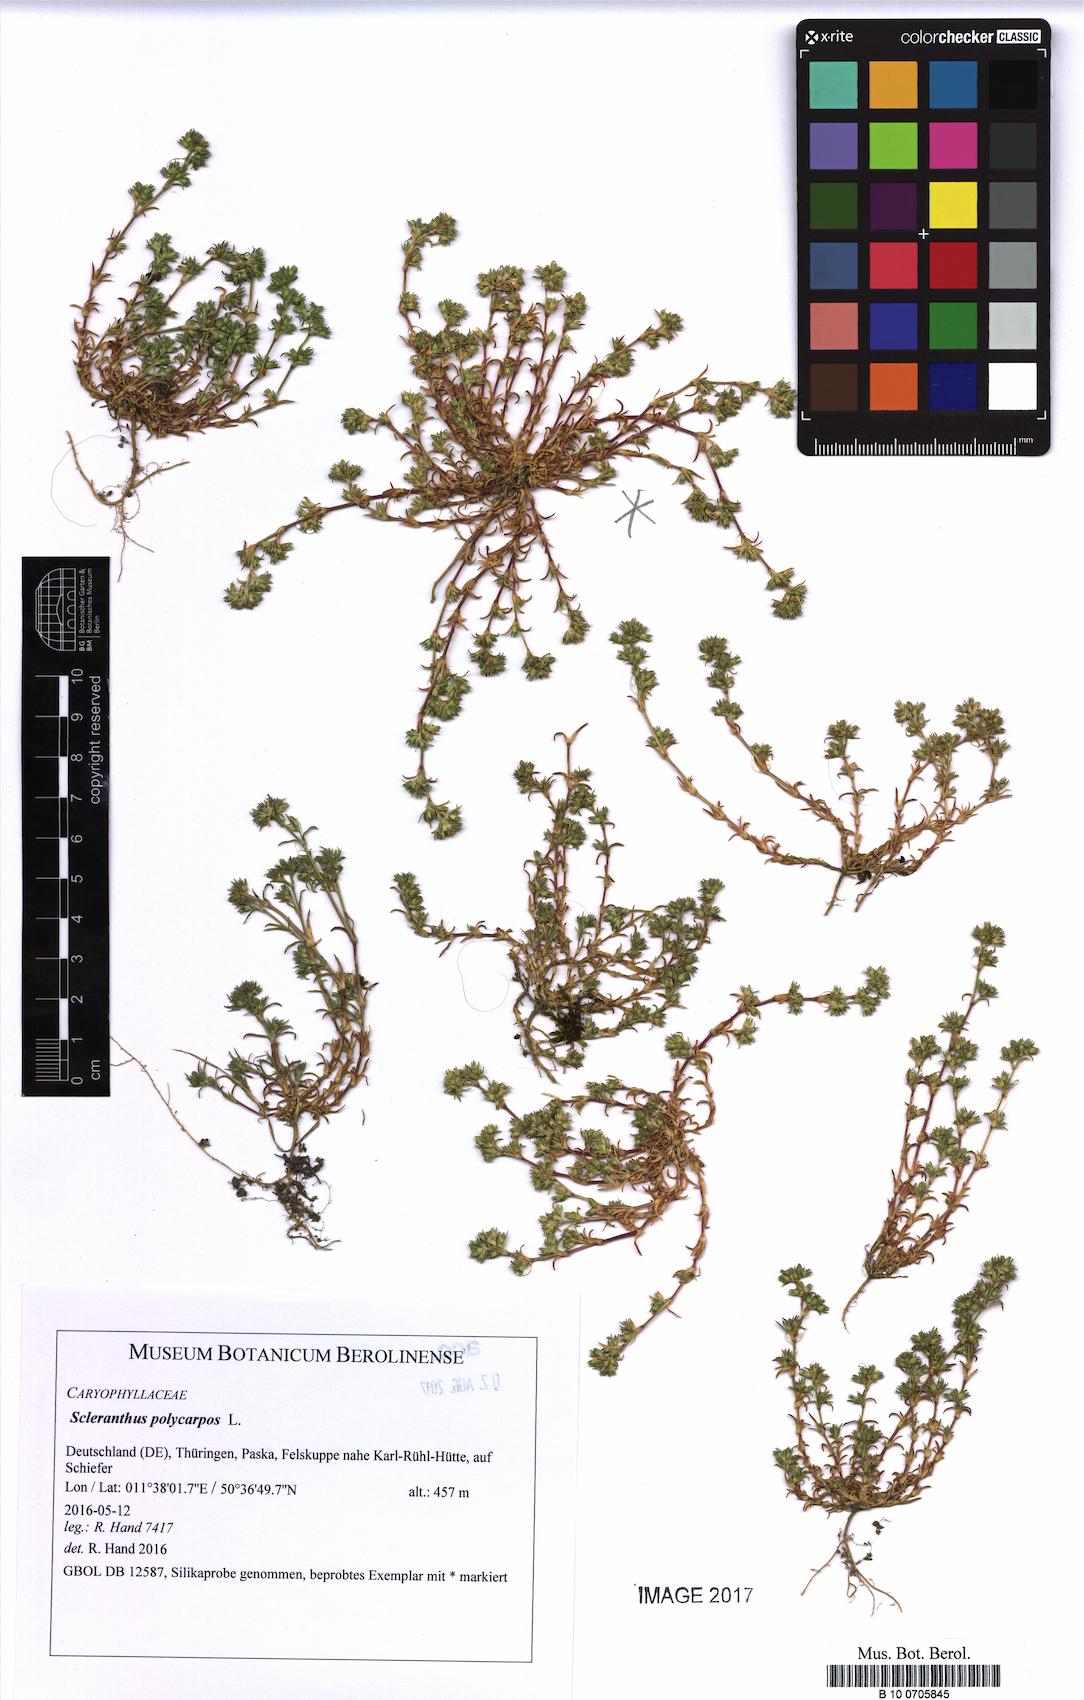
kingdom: Plantae
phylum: Tracheophyta
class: Magnoliopsida
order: Caryophyllales
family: Caryophyllaceae
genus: Scleranthus
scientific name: Scleranthus annuus
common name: Annual knawel
